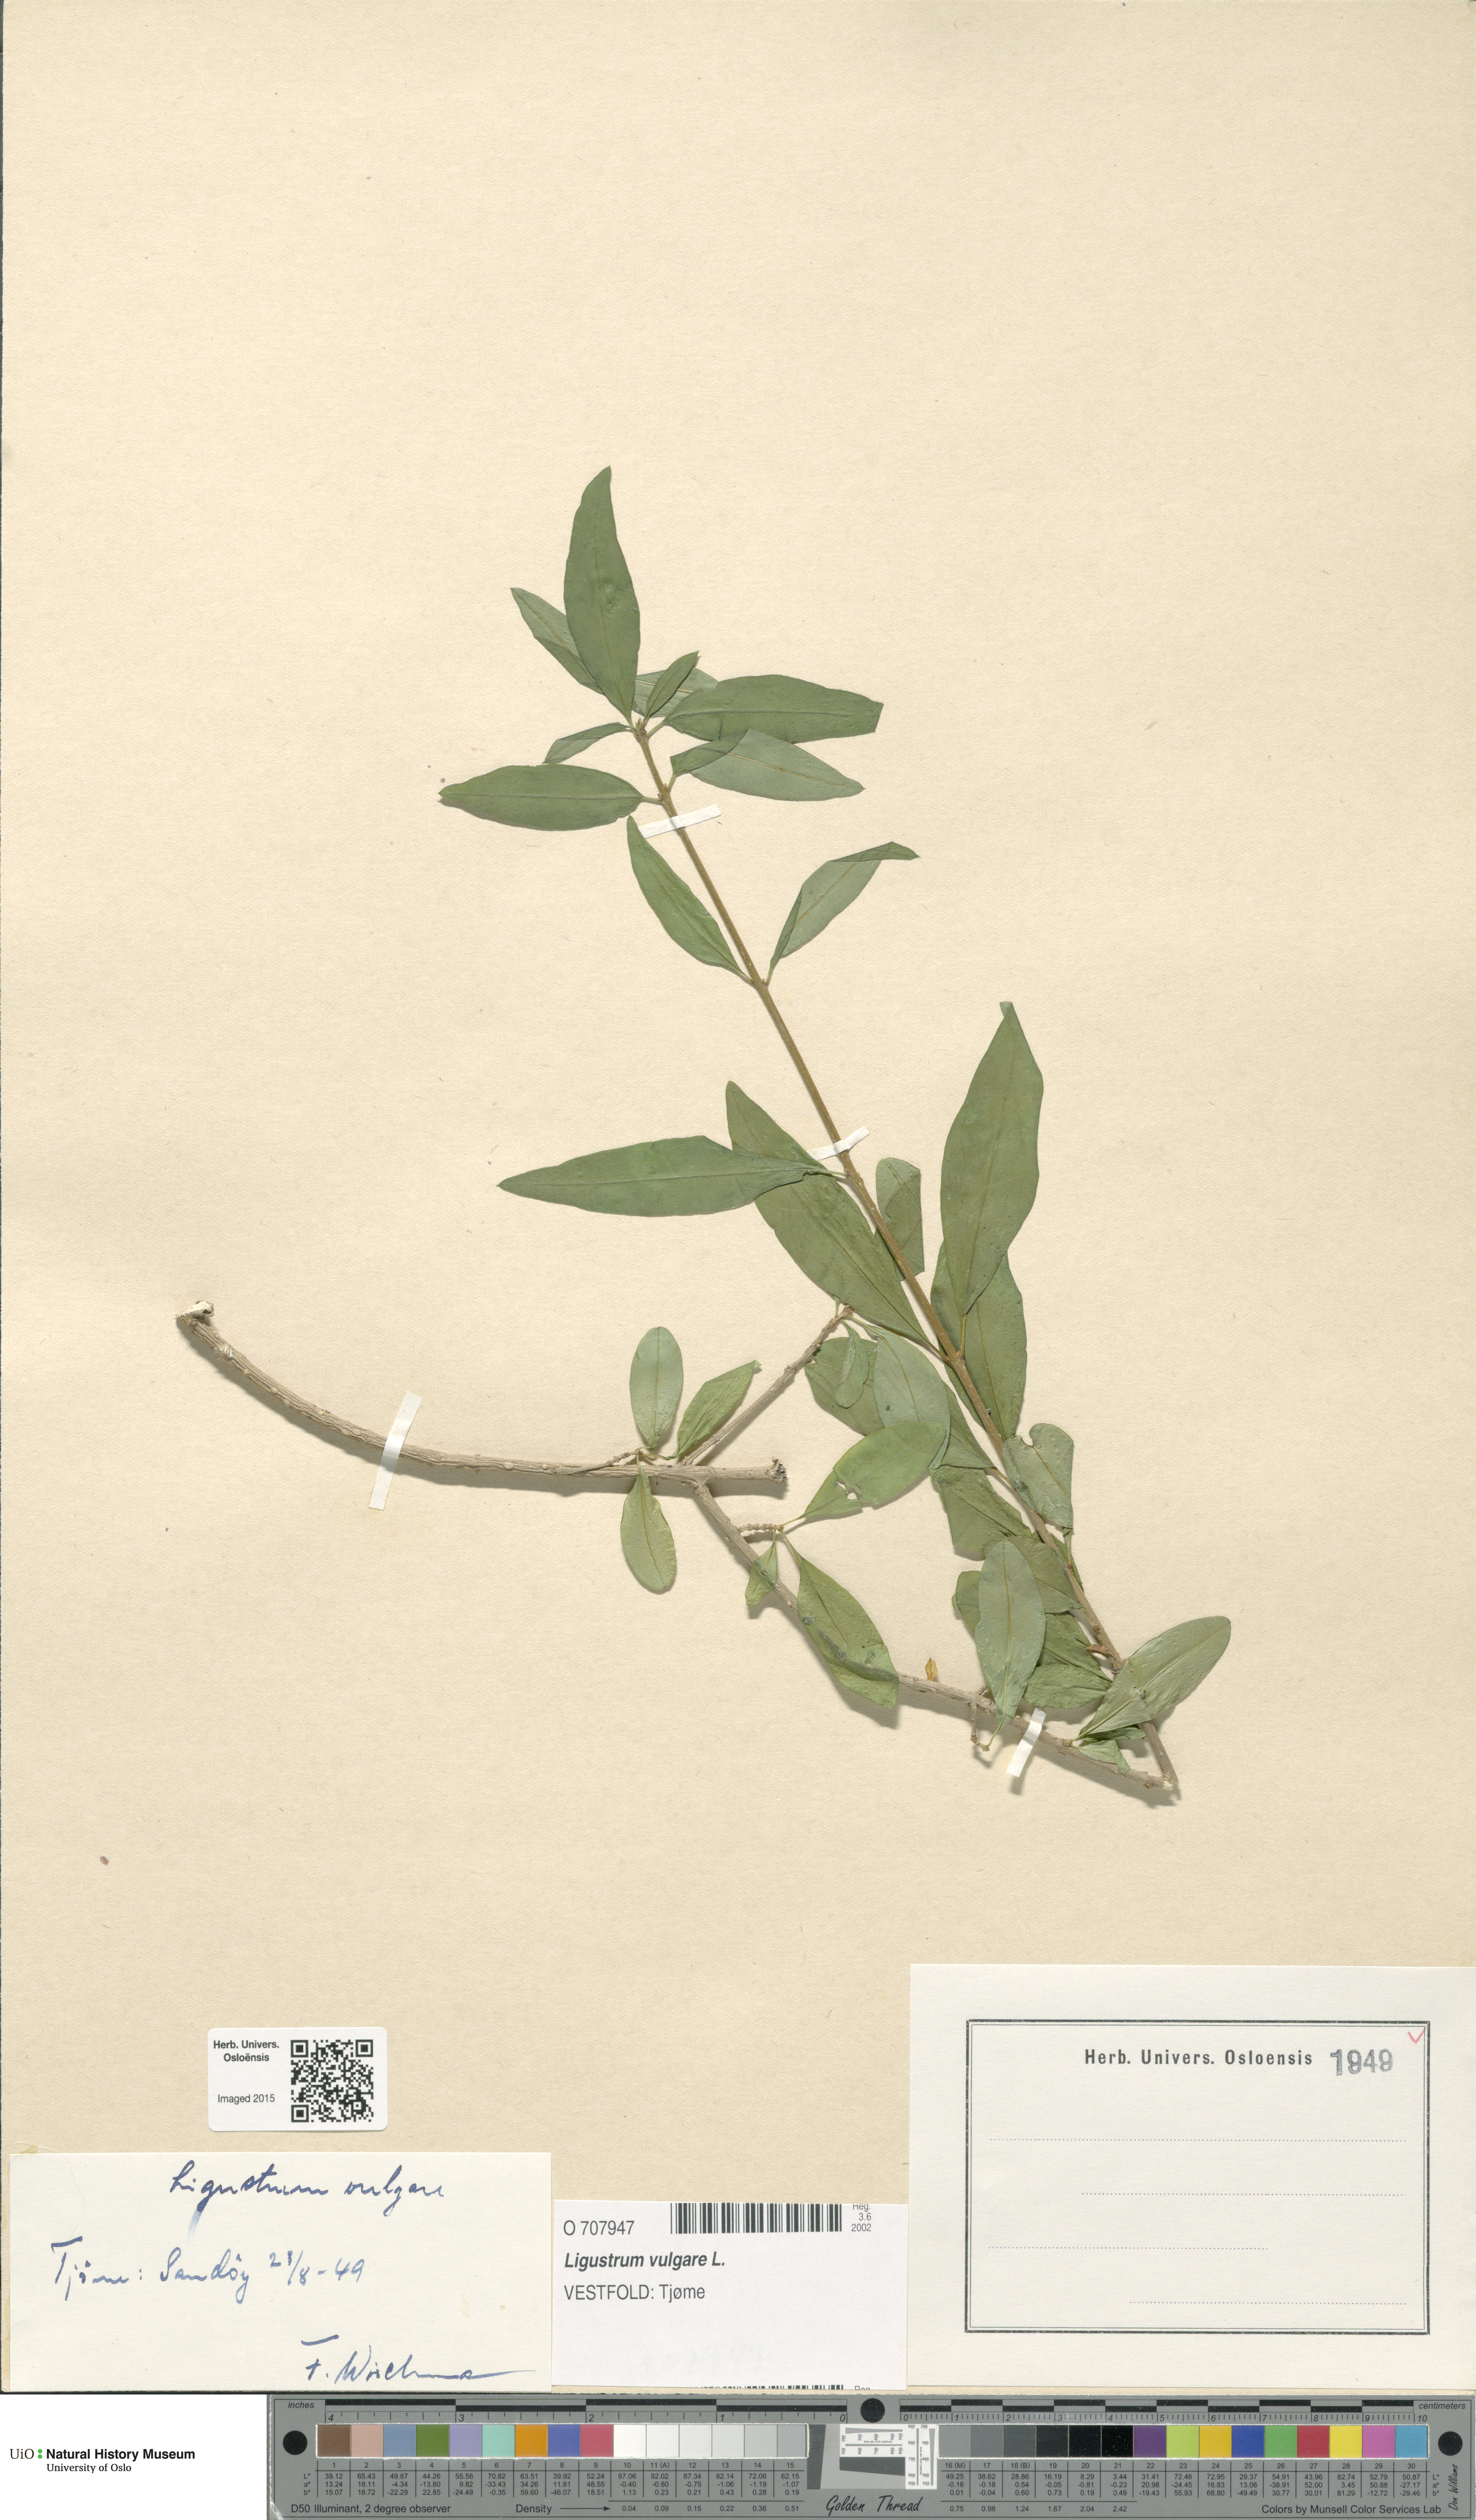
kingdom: Plantae
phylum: Tracheophyta
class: Magnoliopsida
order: Lamiales
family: Oleaceae
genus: Ligustrum
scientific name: Ligustrum vulgare
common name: Wild privet
